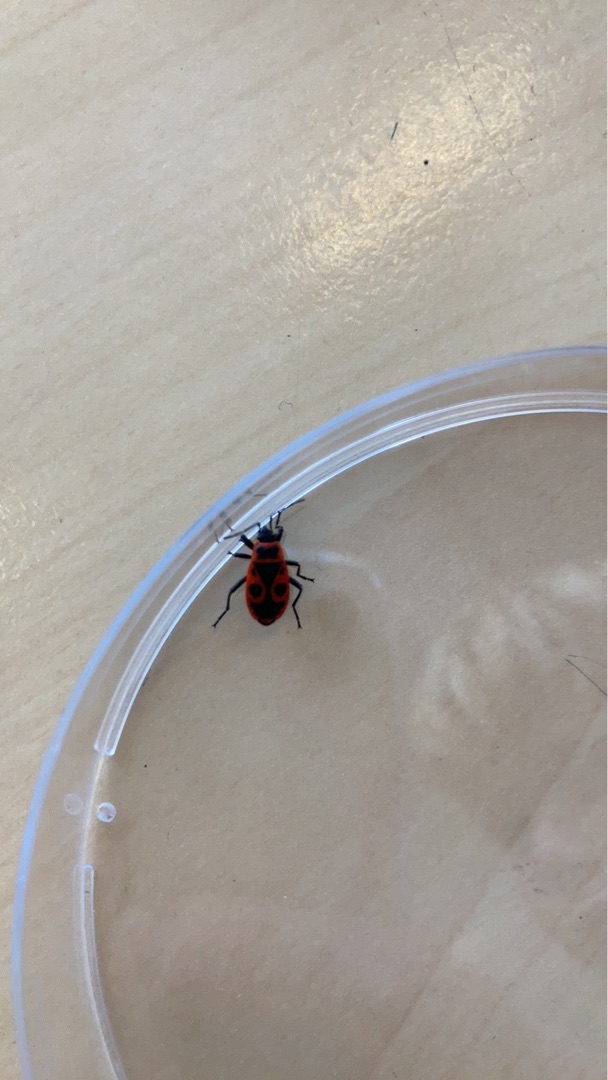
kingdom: Animalia
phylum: Arthropoda
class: Insecta
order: Hemiptera
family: Pyrrhocoridae
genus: Pyrrhocoris
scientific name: Pyrrhocoris apterus
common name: Ildtæge
